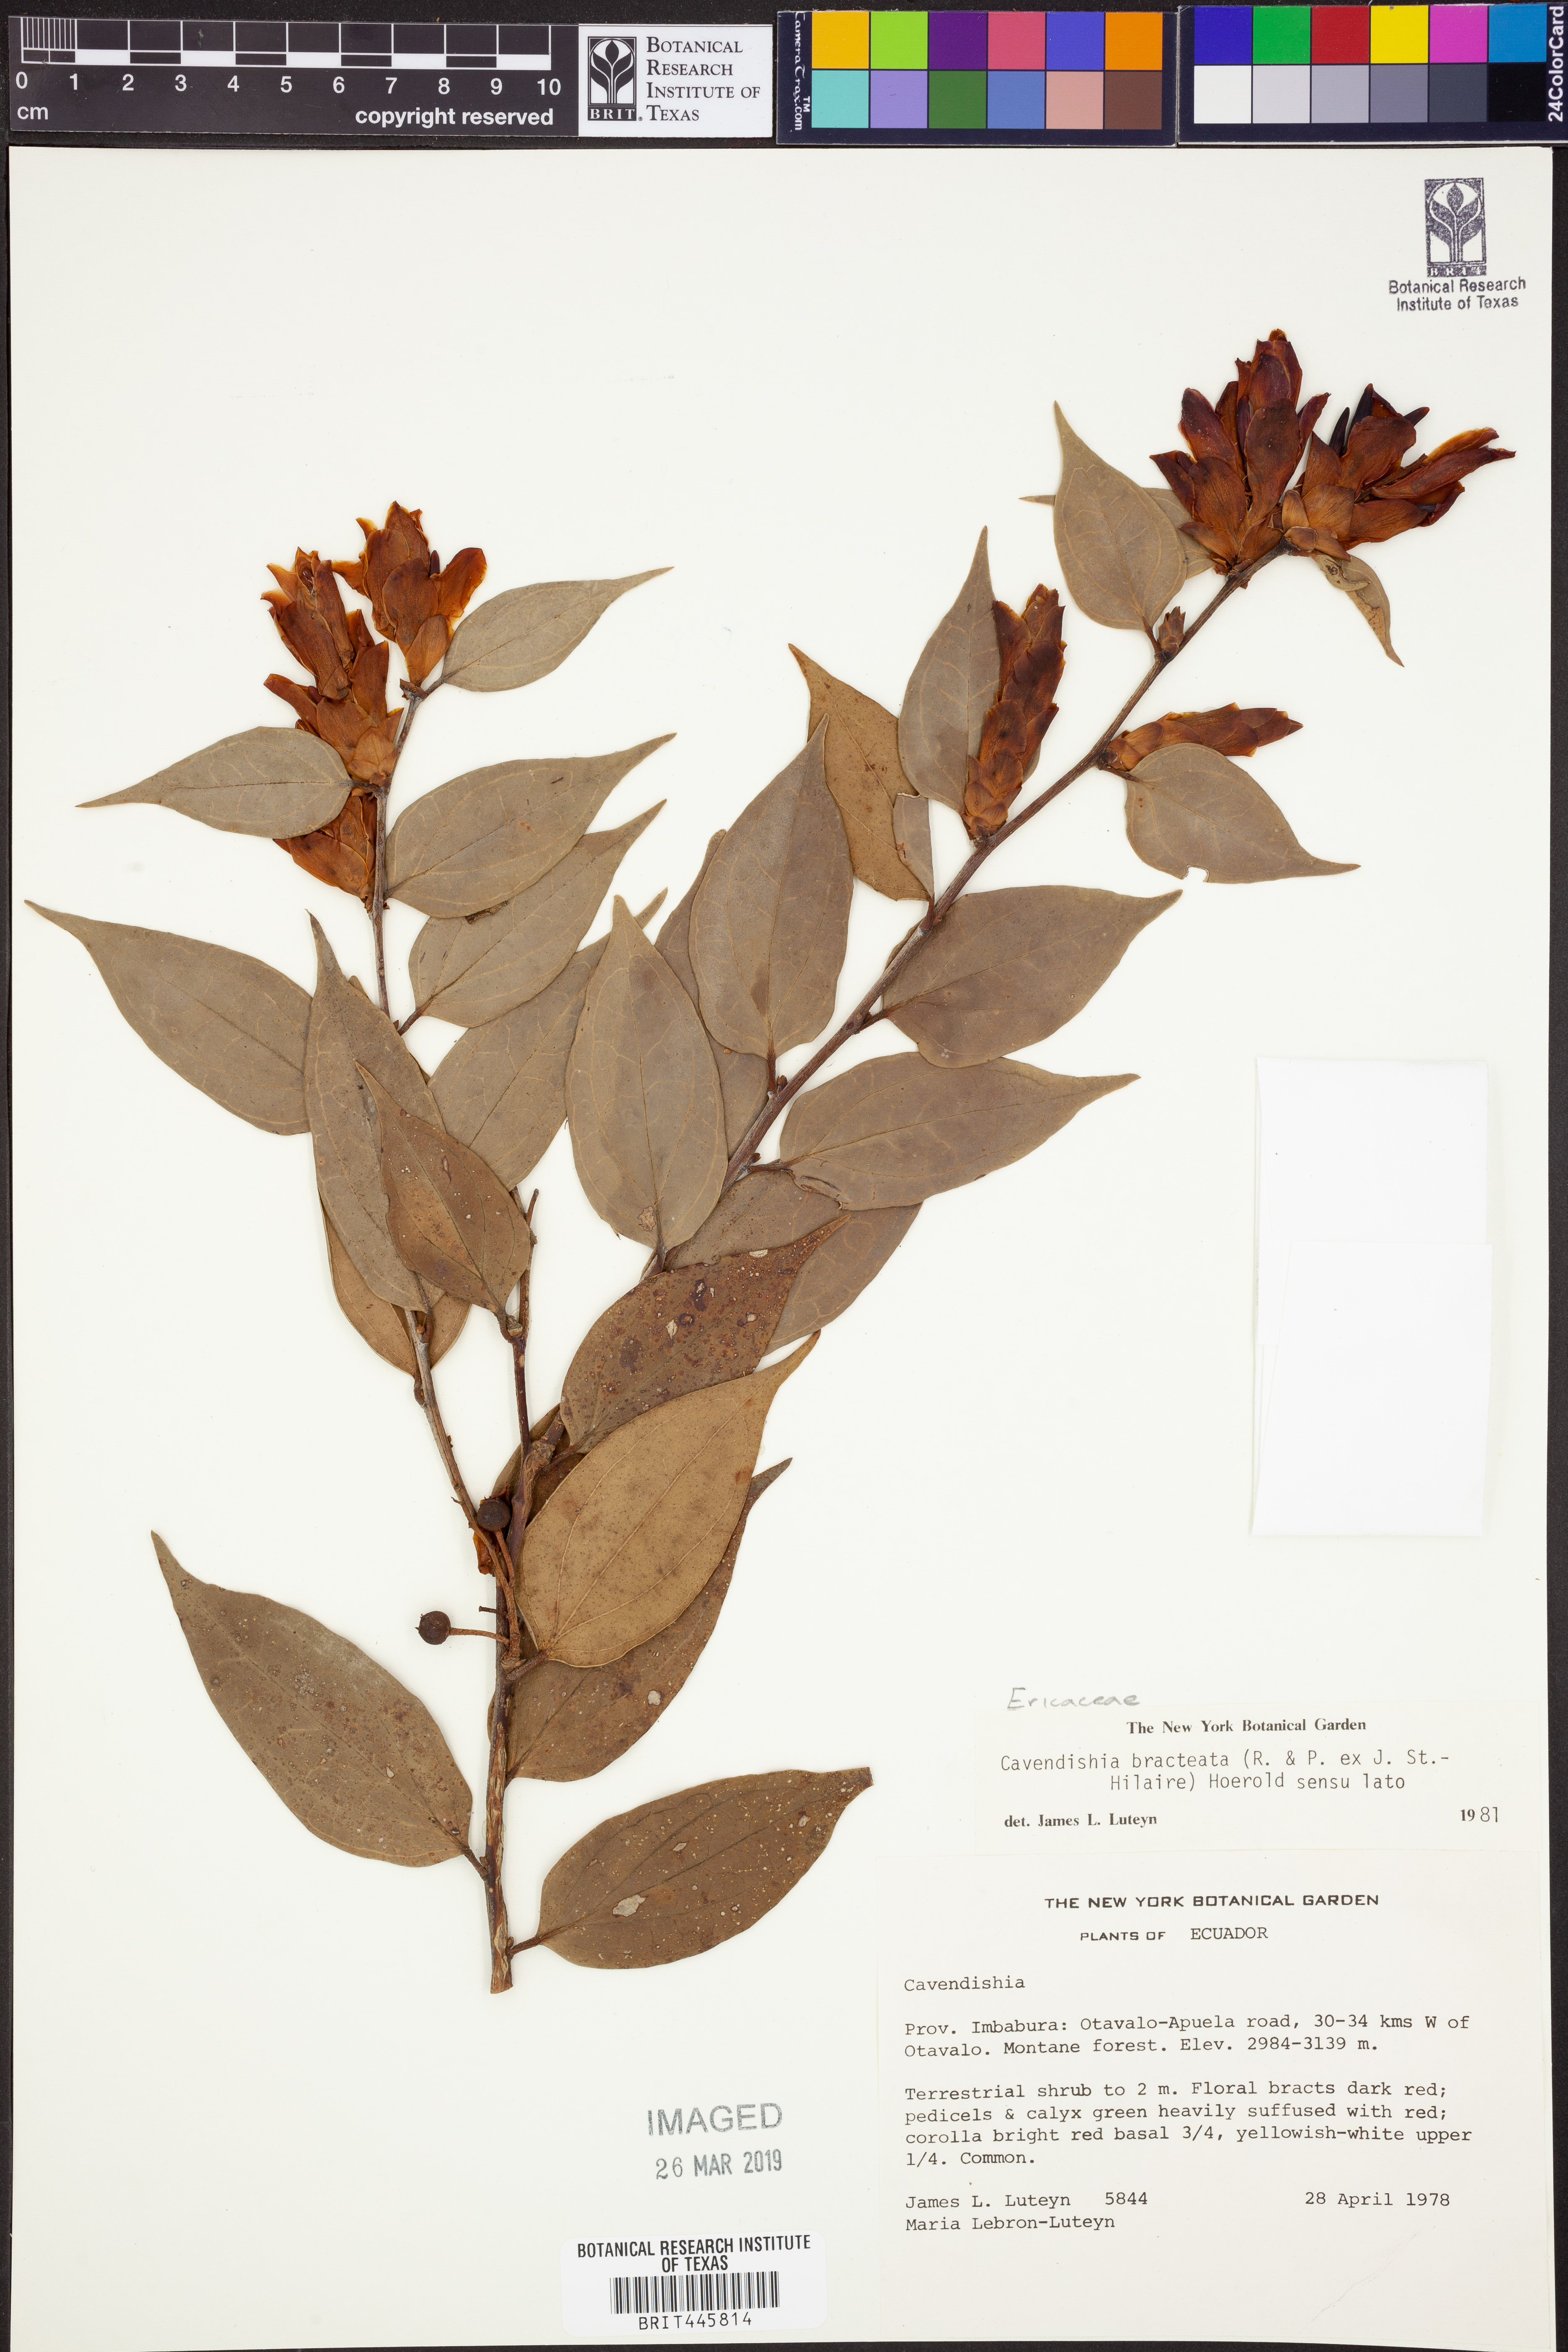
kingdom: Plantae
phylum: Tracheophyta
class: Magnoliopsida
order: Ericales
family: Ericaceae
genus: Cavendishia
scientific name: Cavendishia bracteata
